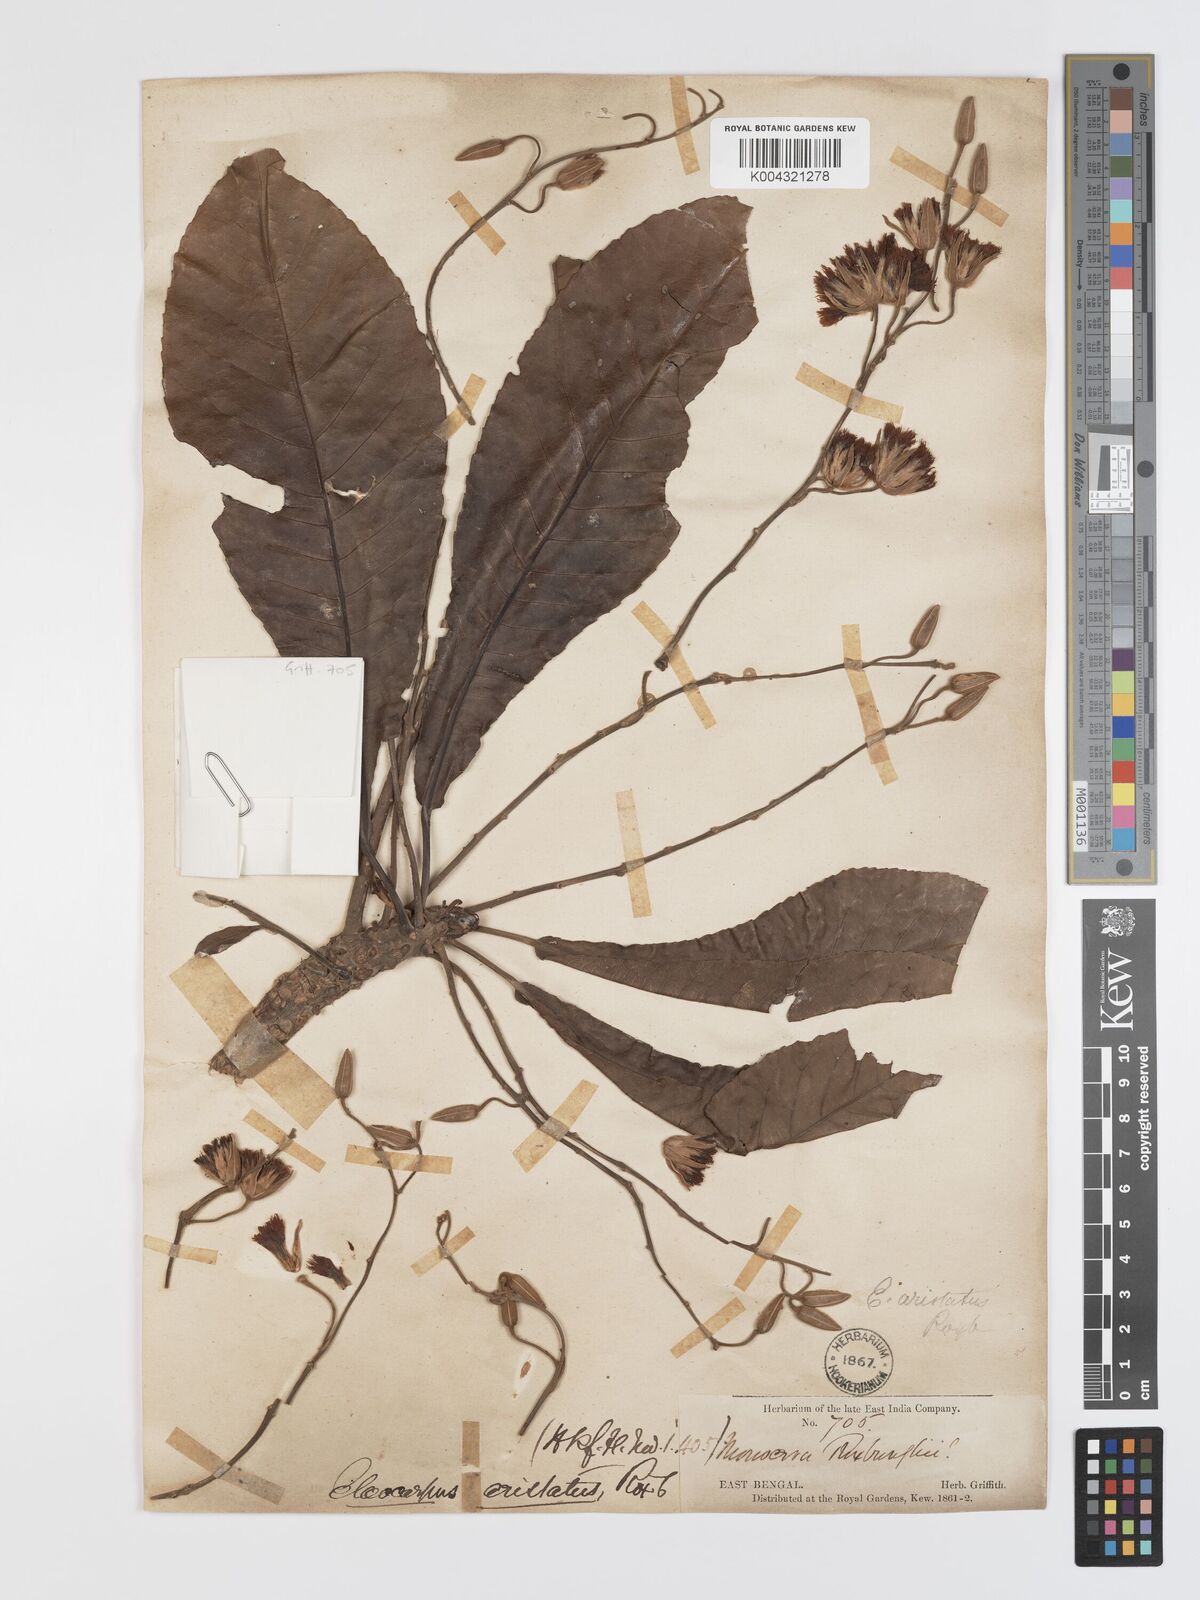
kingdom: Plantae
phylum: Tracheophyta
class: Magnoliopsida
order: Oxalidales
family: Elaeocarpaceae
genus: Elaeocarpus
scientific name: Elaeocarpus aristatus
